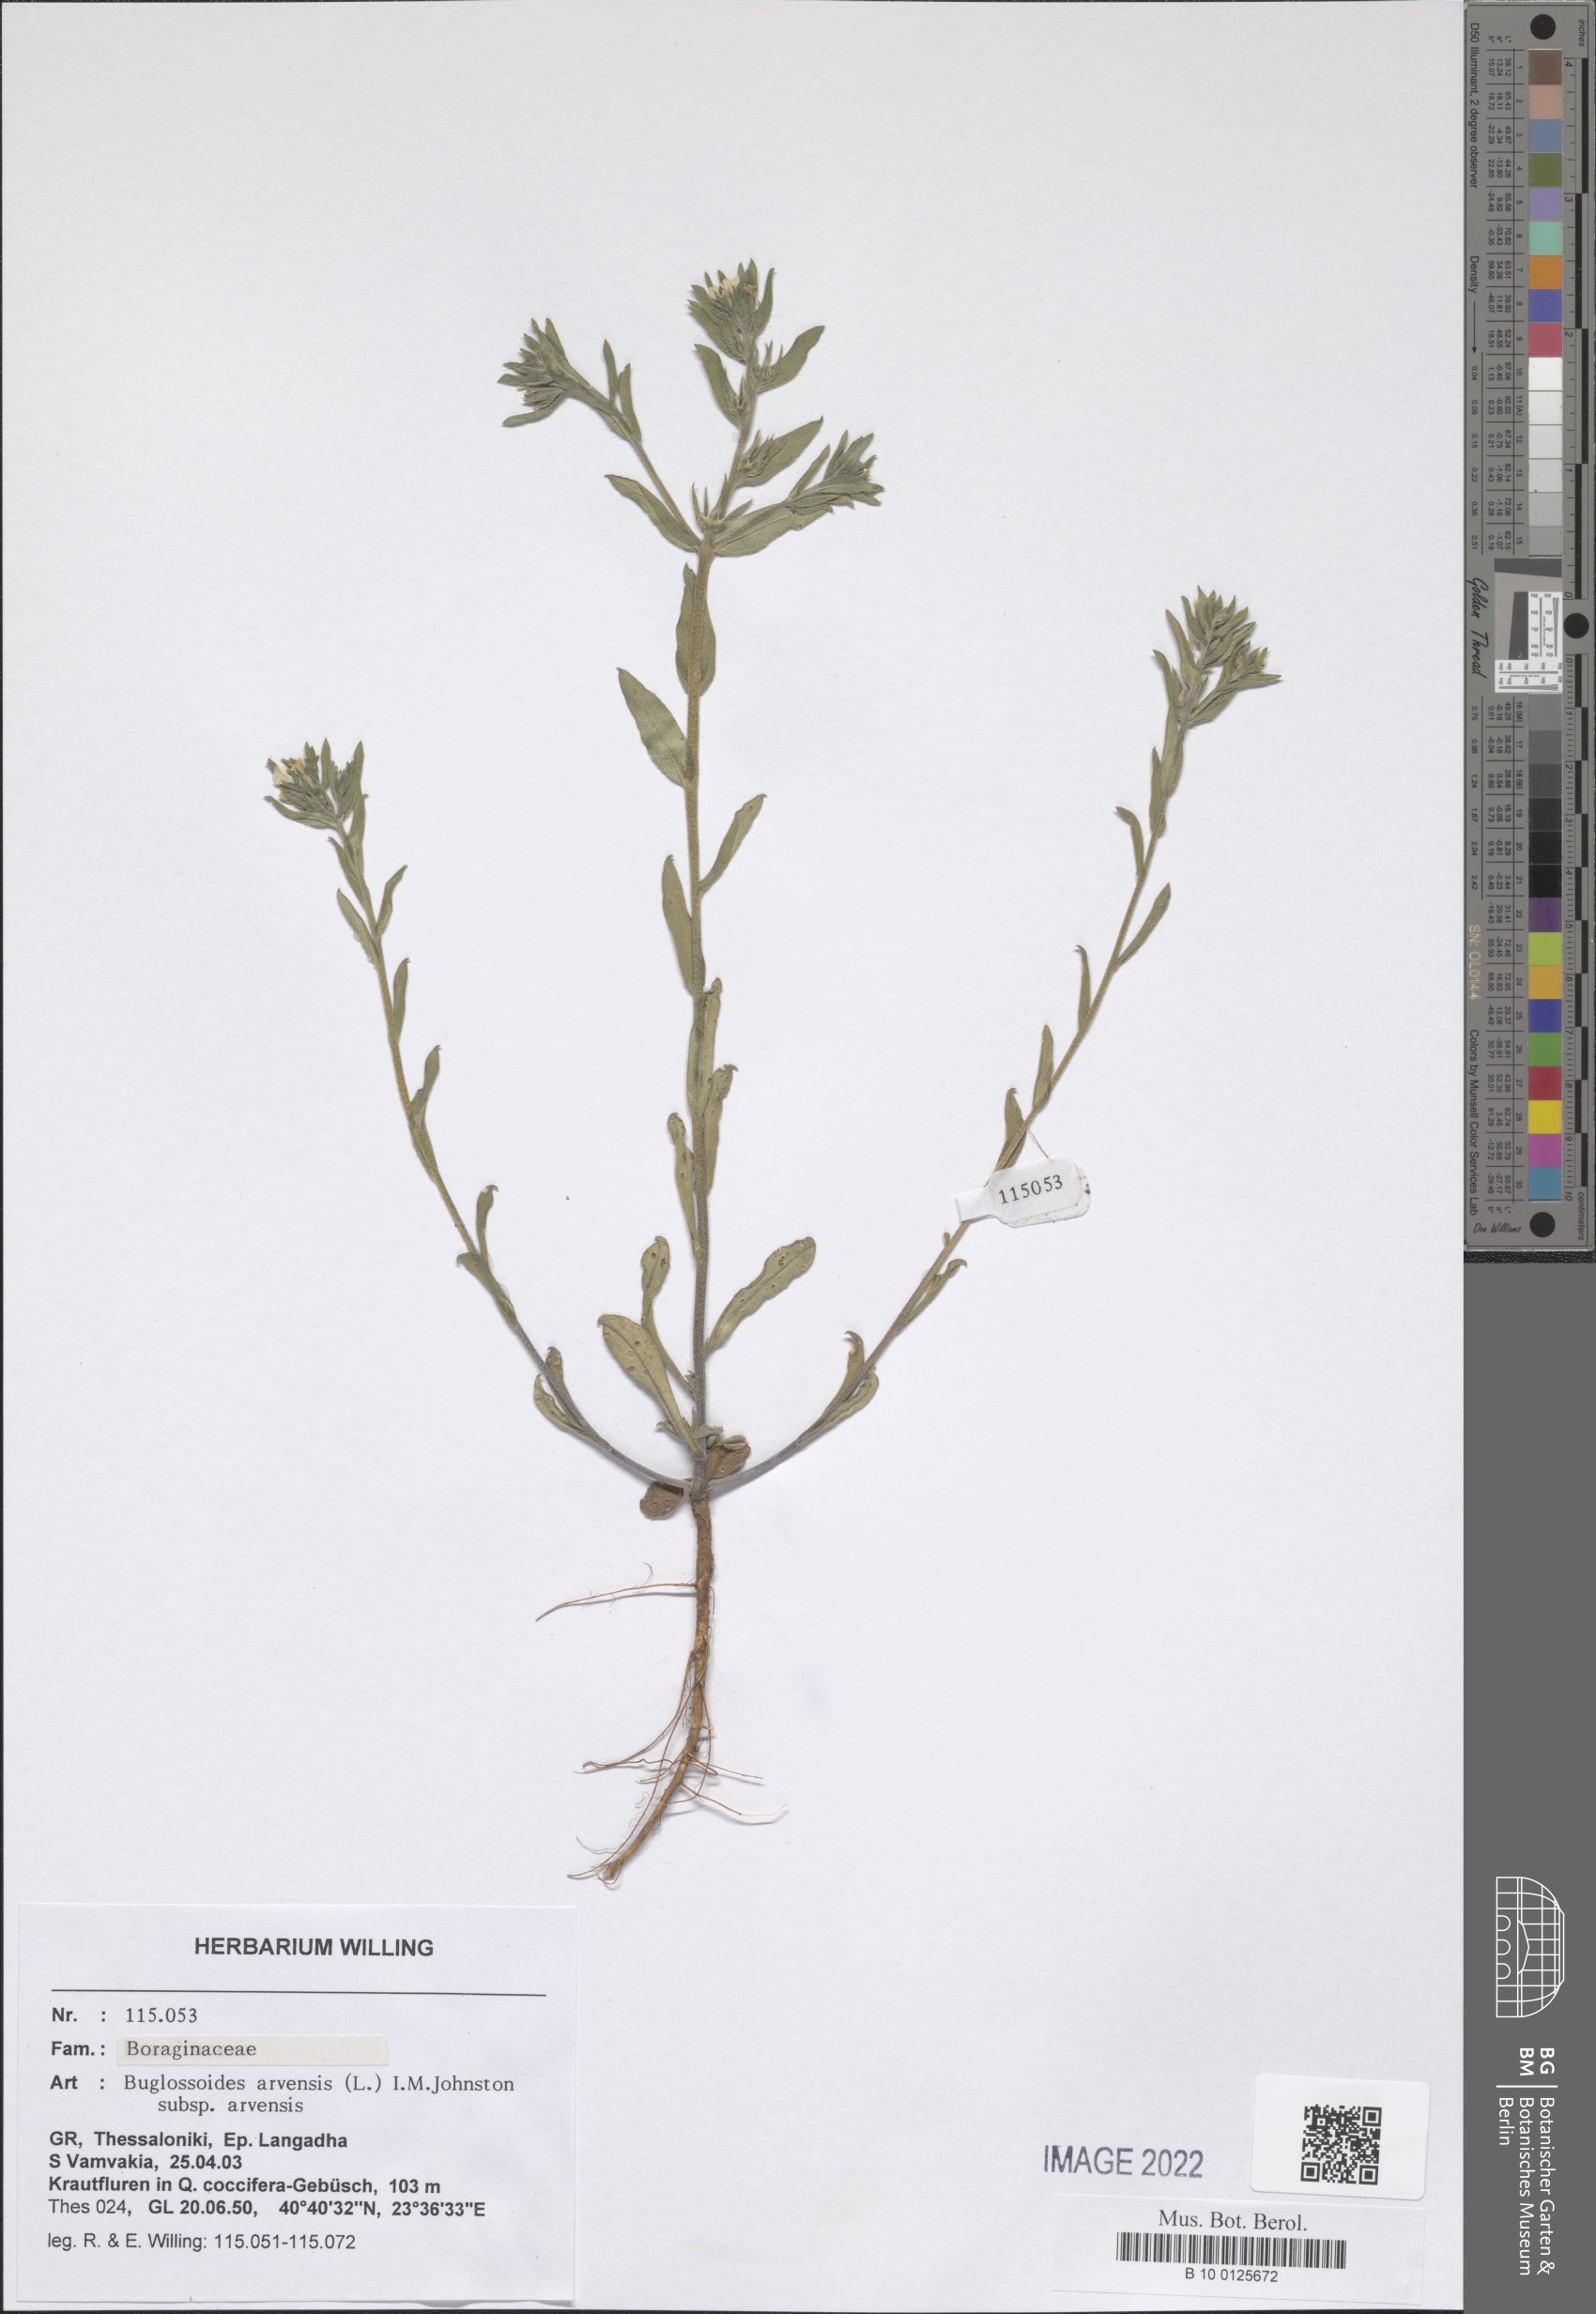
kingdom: Plantae
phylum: Tracheophyta
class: Magnoliopsida
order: Boraginales
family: Boraginaceae
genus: Buglossoides
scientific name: Buglossoides arvensis
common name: Corn gromwell
